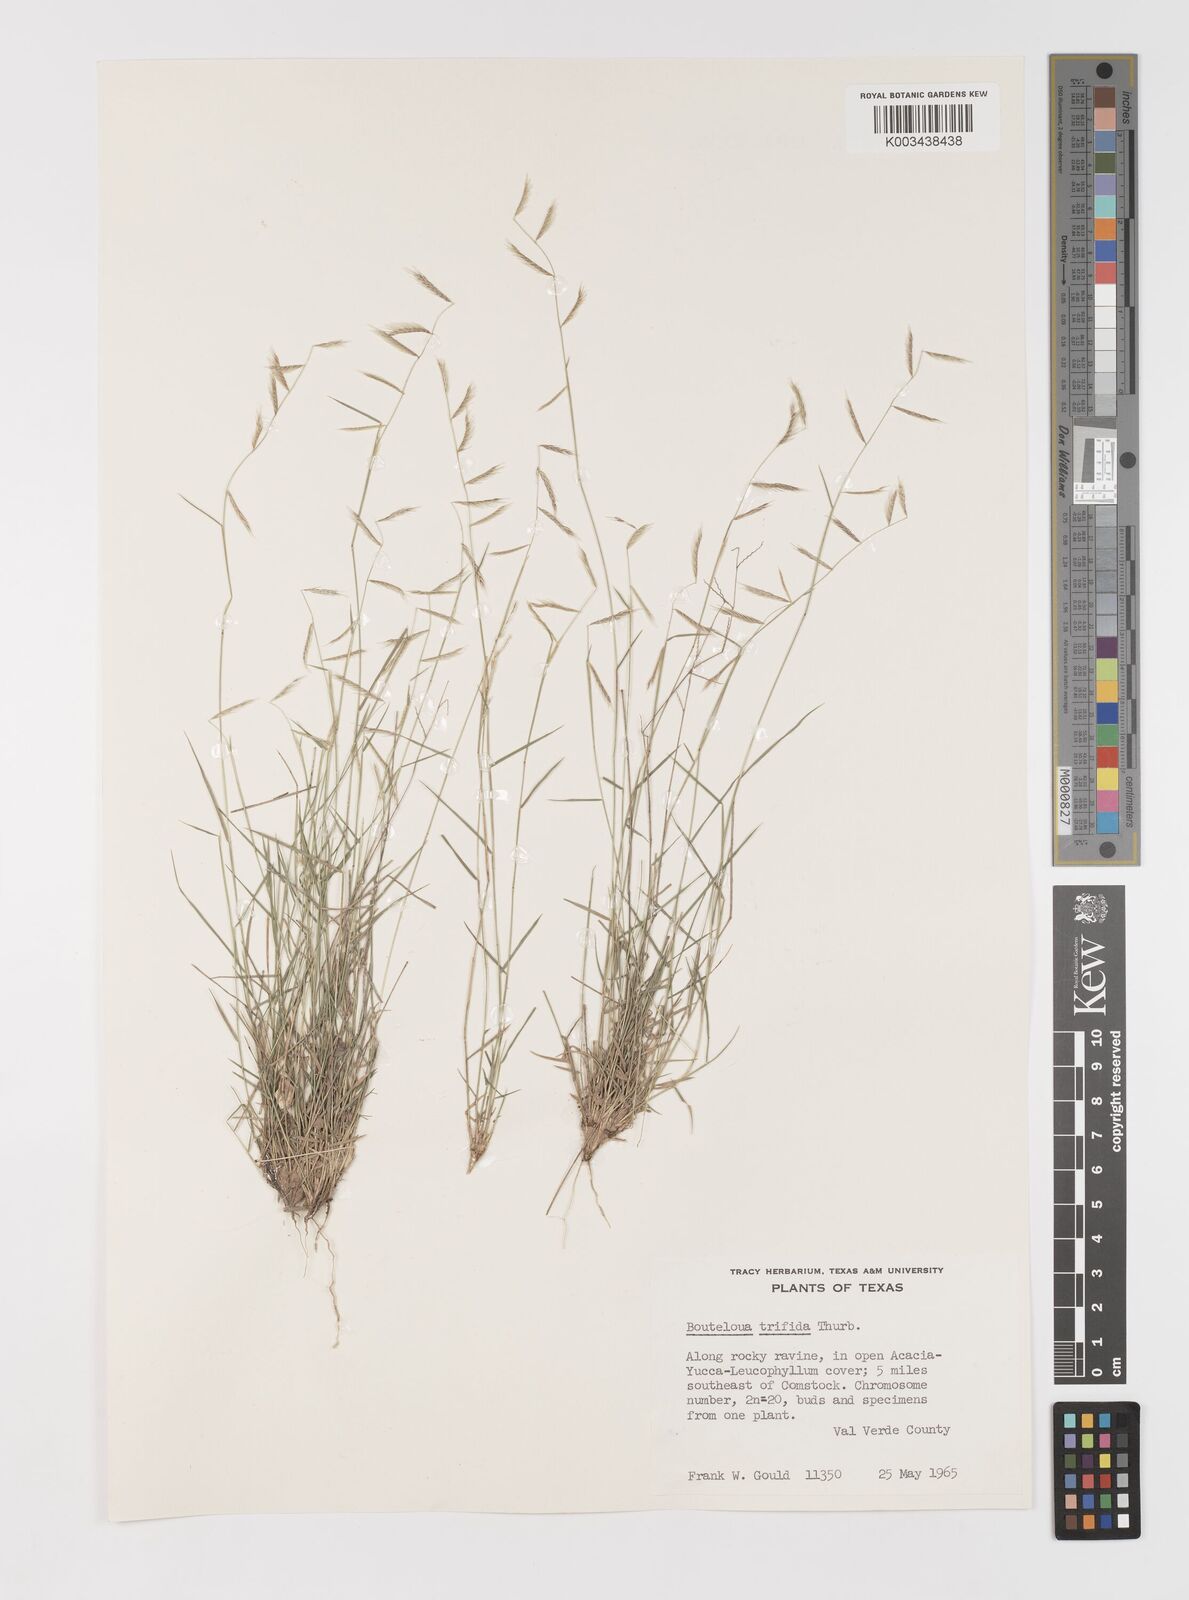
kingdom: Plantae
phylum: Tracheophyta
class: Liliopsida
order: Poales
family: Poaceae
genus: Bouteloua
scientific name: Bouteloua trifida
